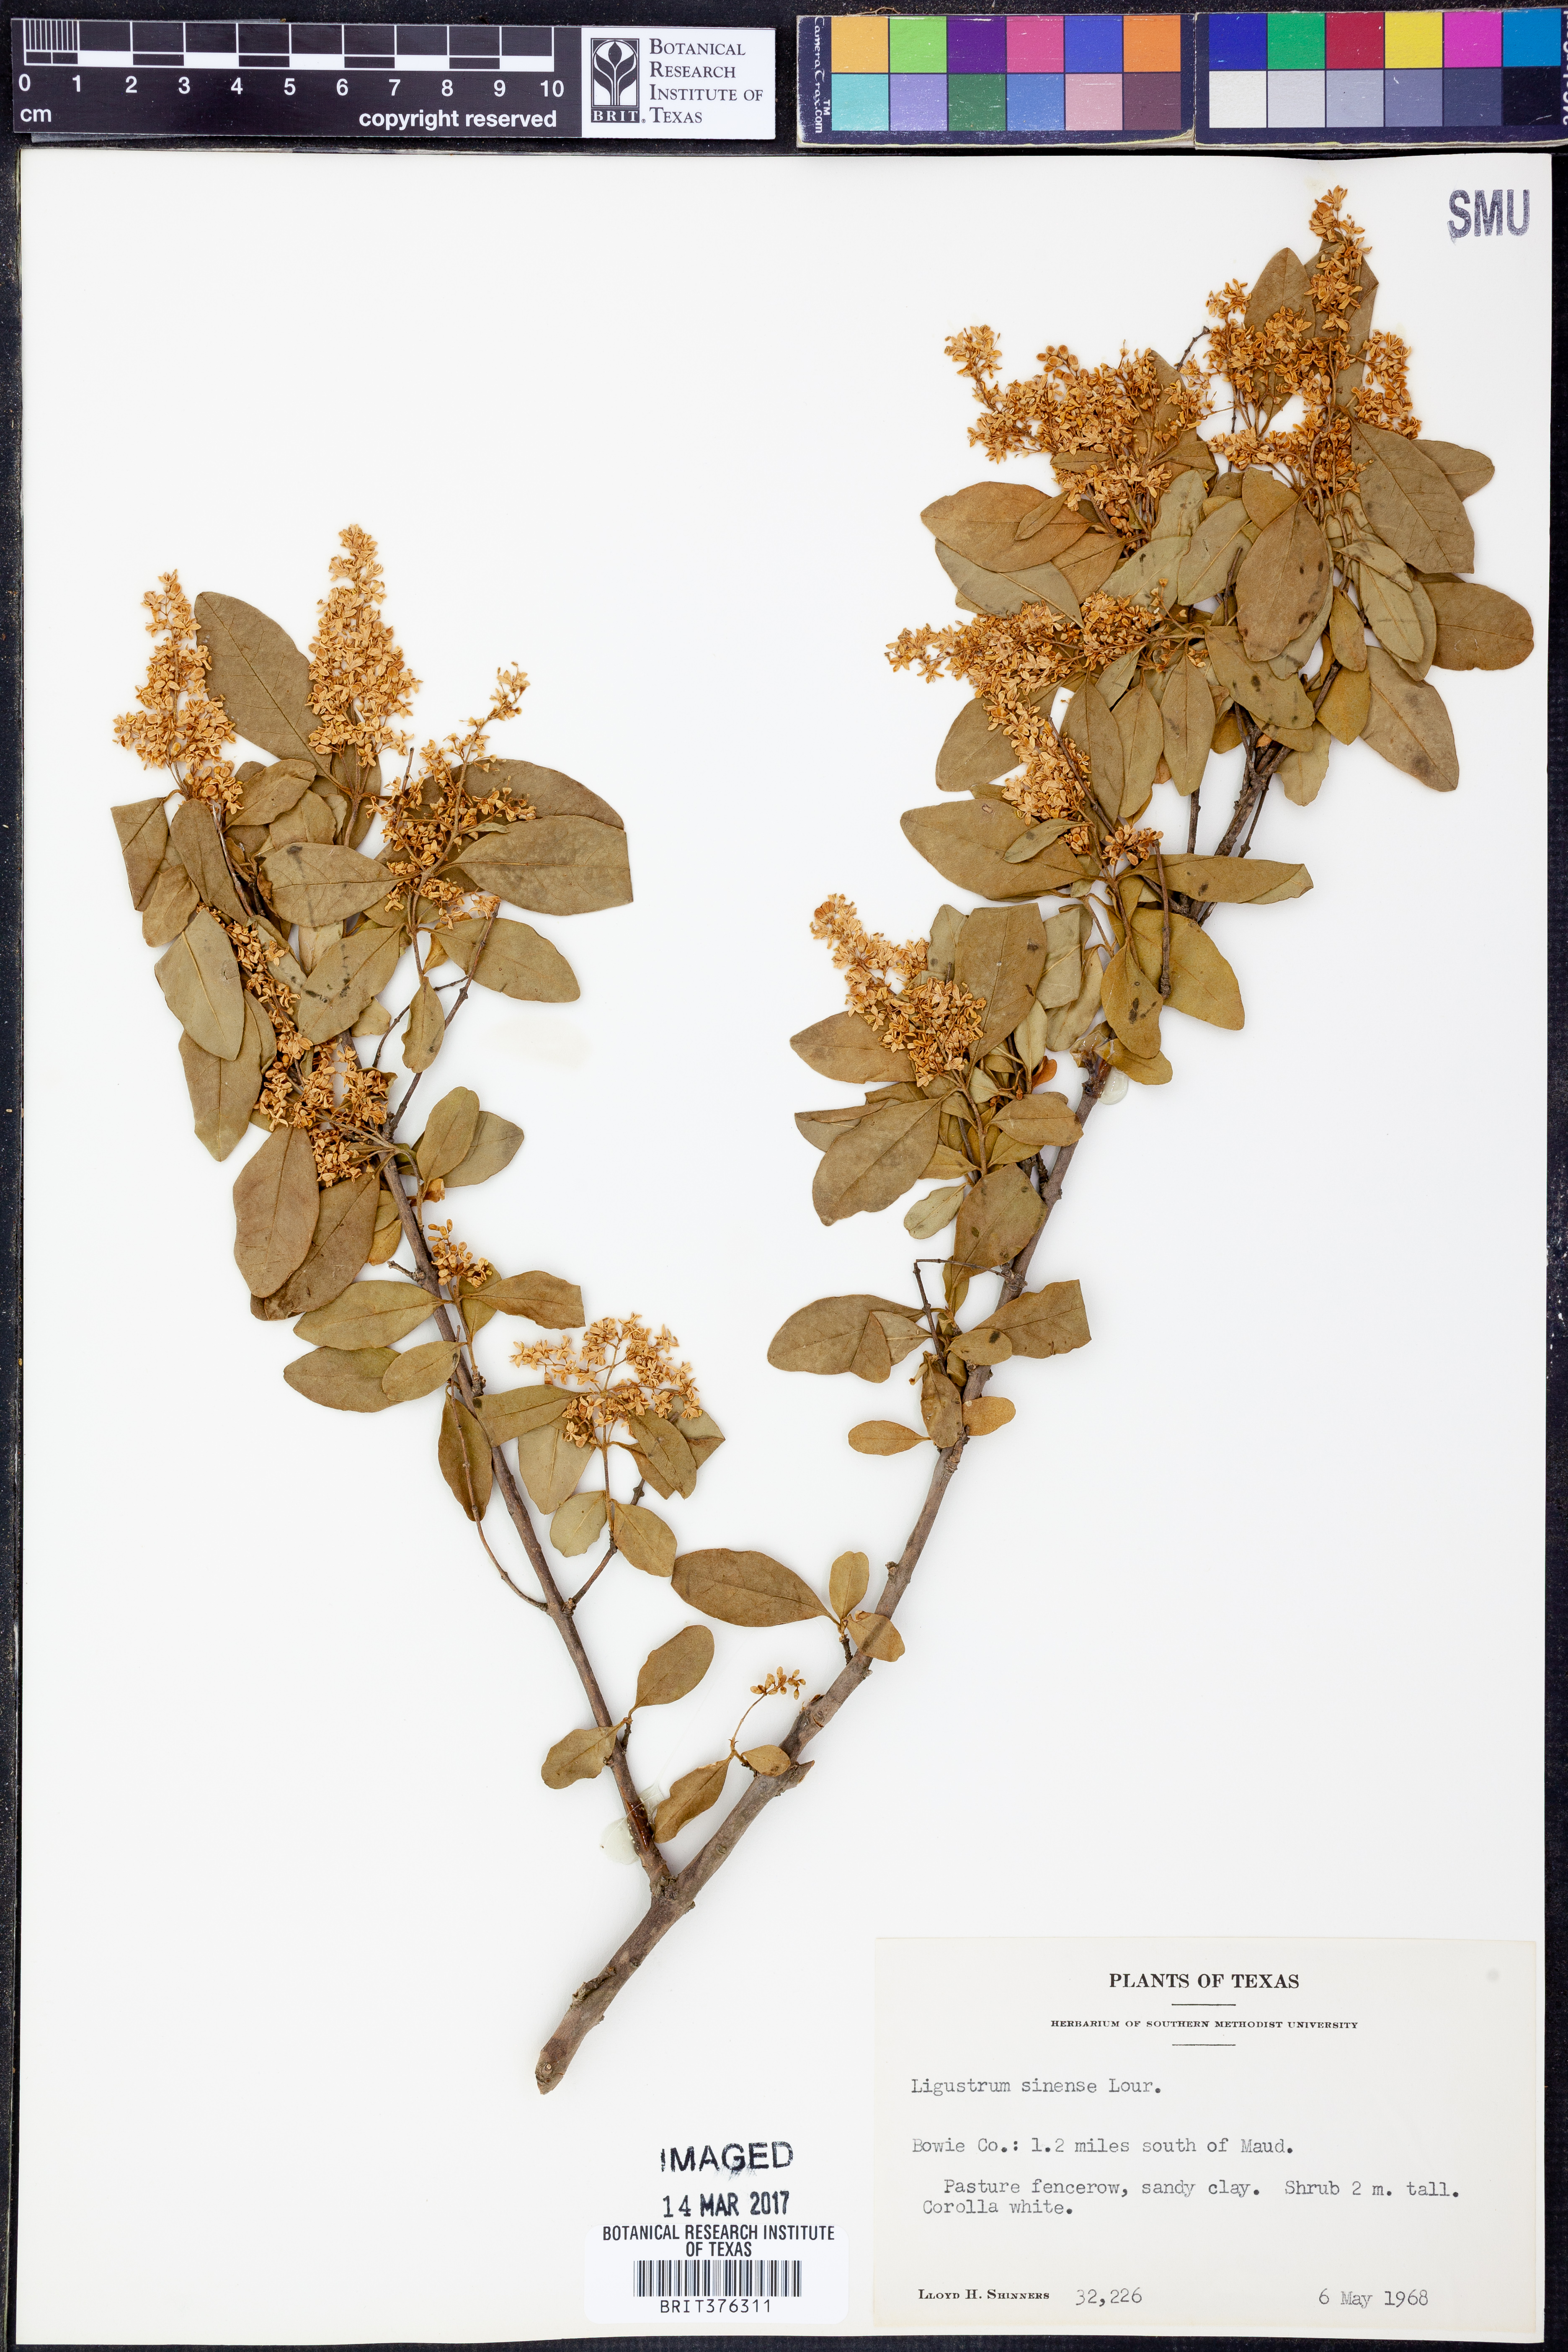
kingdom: Plantae
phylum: Tracheophyta
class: Magnoliopsida
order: Lamiales
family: Oleaceae
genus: Ligustrum
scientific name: Ligustrum sinense
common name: Chinese privet
